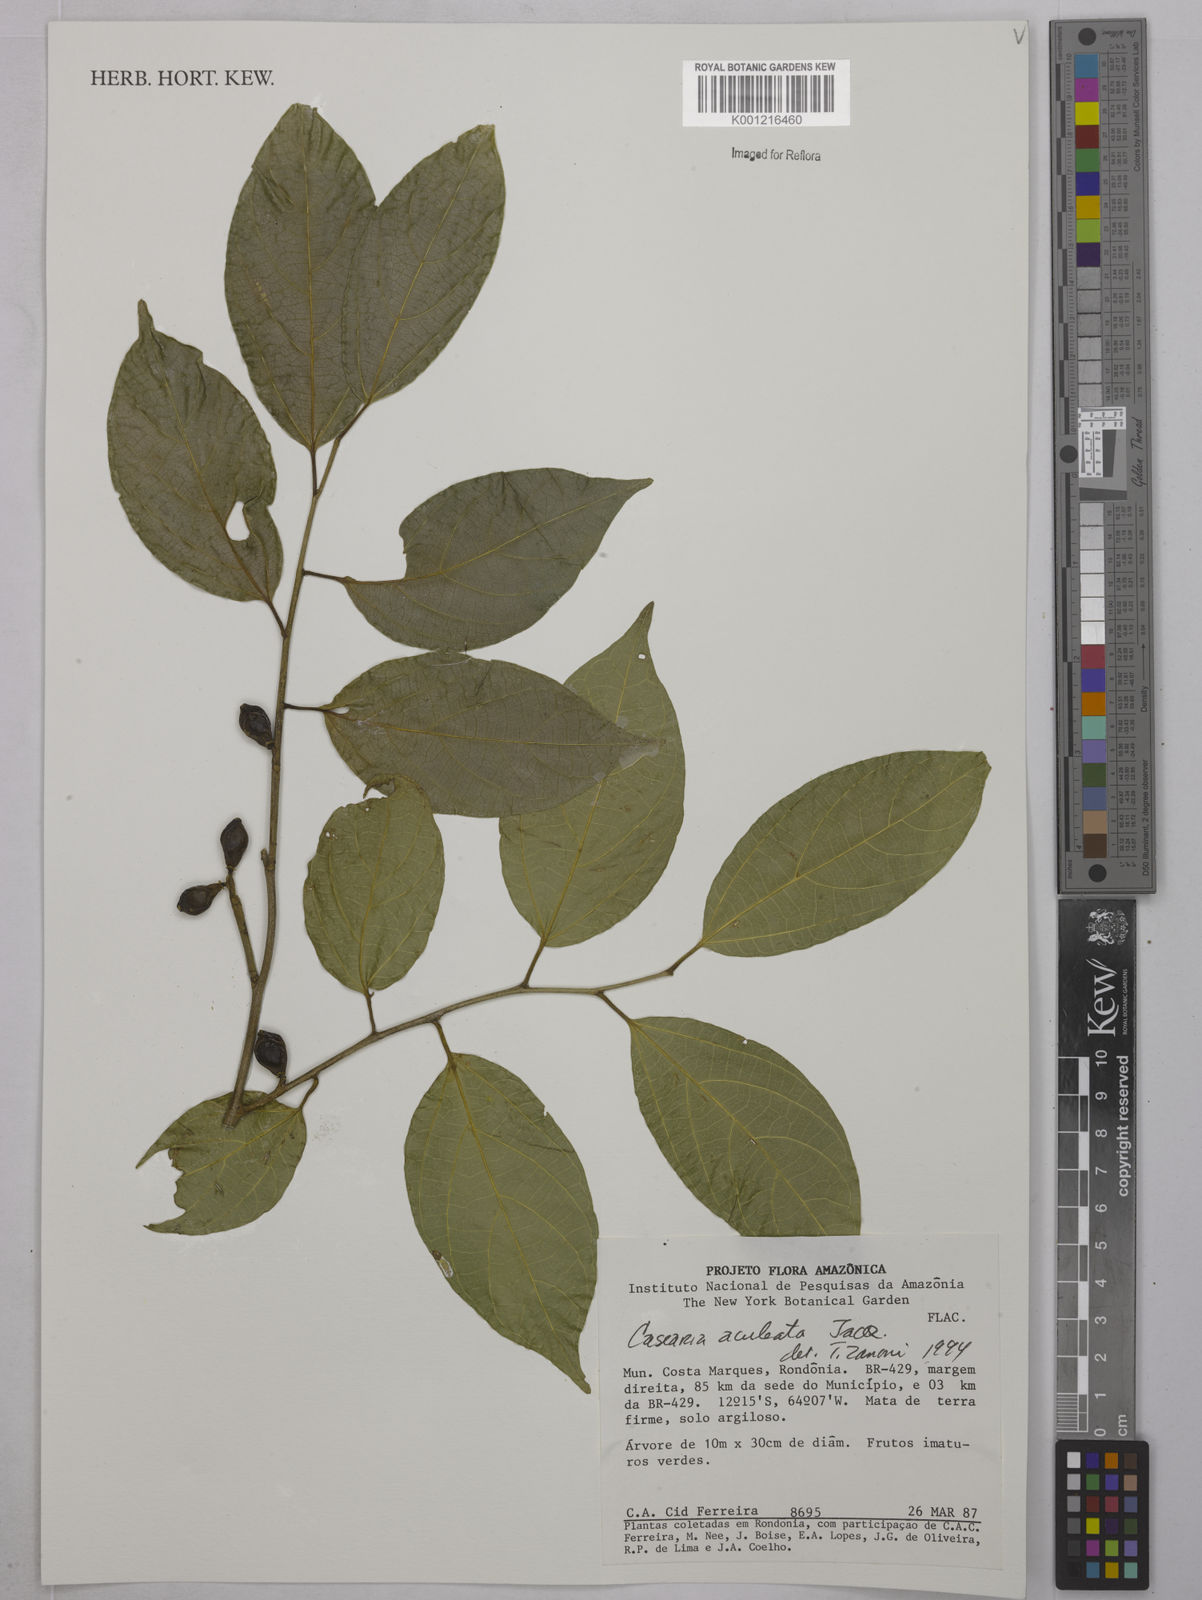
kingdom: Plantae
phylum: Tracheophyta
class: Magnoliopsida
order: Malpighiales
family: Salicaceae
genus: Casearia
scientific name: Casearia aculeata
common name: Cockspur
